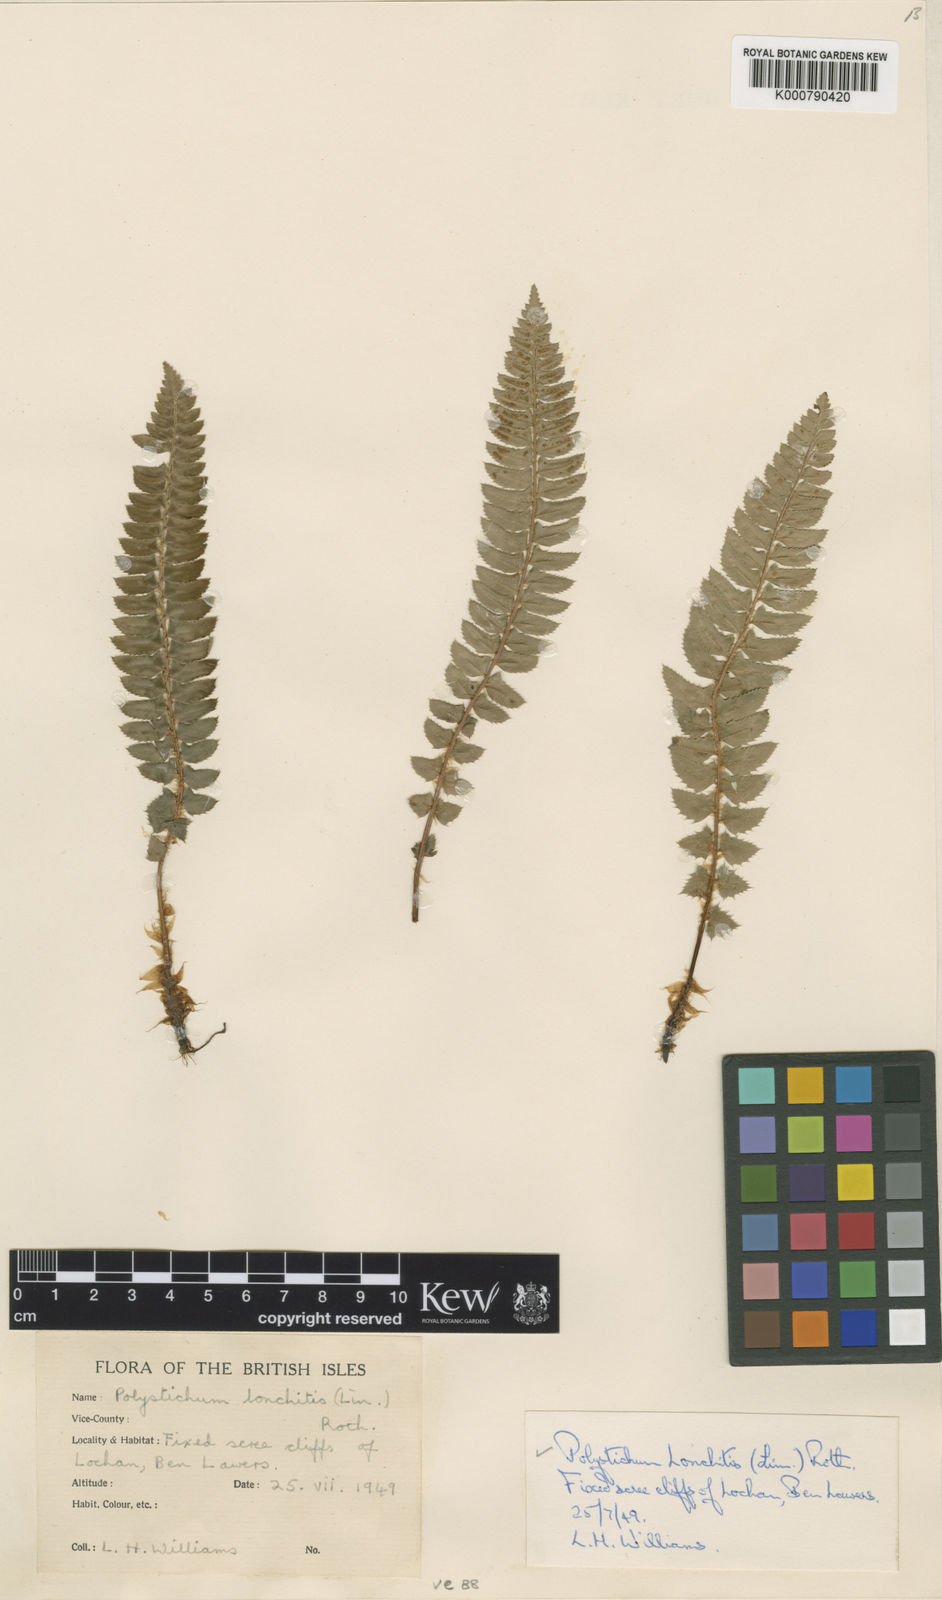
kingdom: Plantae
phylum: Tracheophyta
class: Polypodiopsida
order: Polypodiales
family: Dryopteridaceae
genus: Polystichum
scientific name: Polystichum
